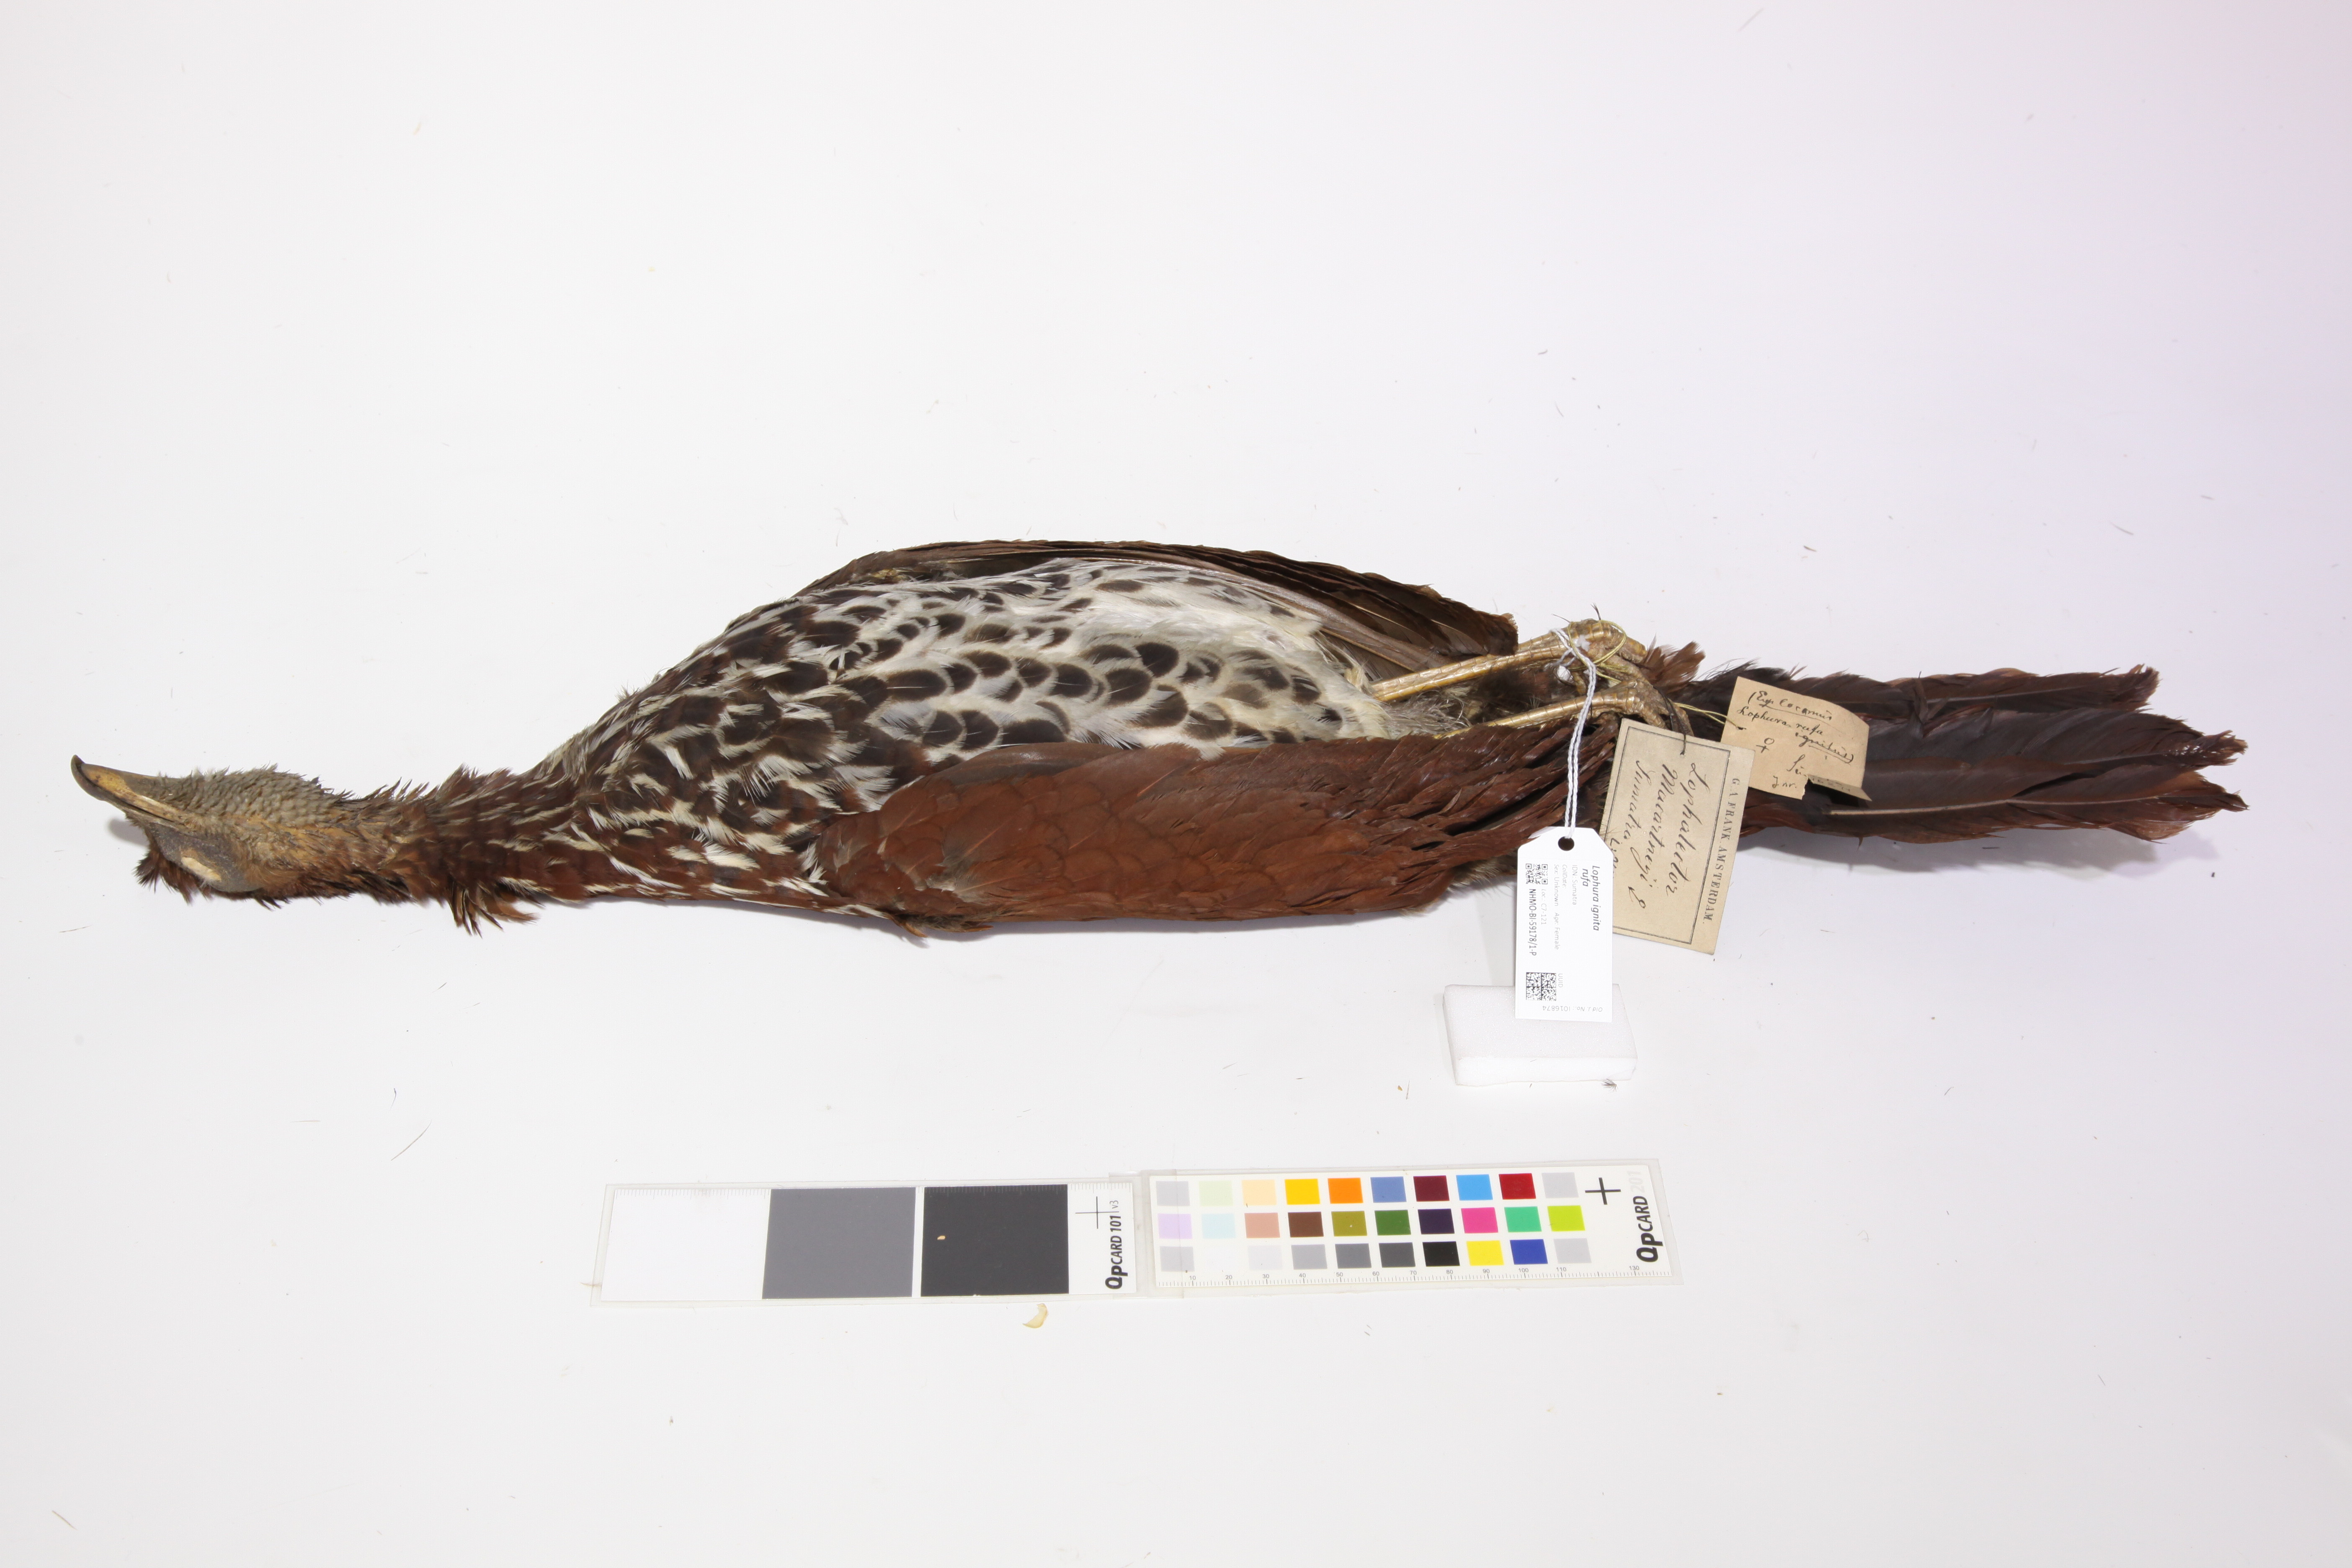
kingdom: Animalia
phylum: Chordata
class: Aves
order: Galliformes
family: Phasianidae
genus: Lophura
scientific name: Lophura ignita
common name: Crested fireback
